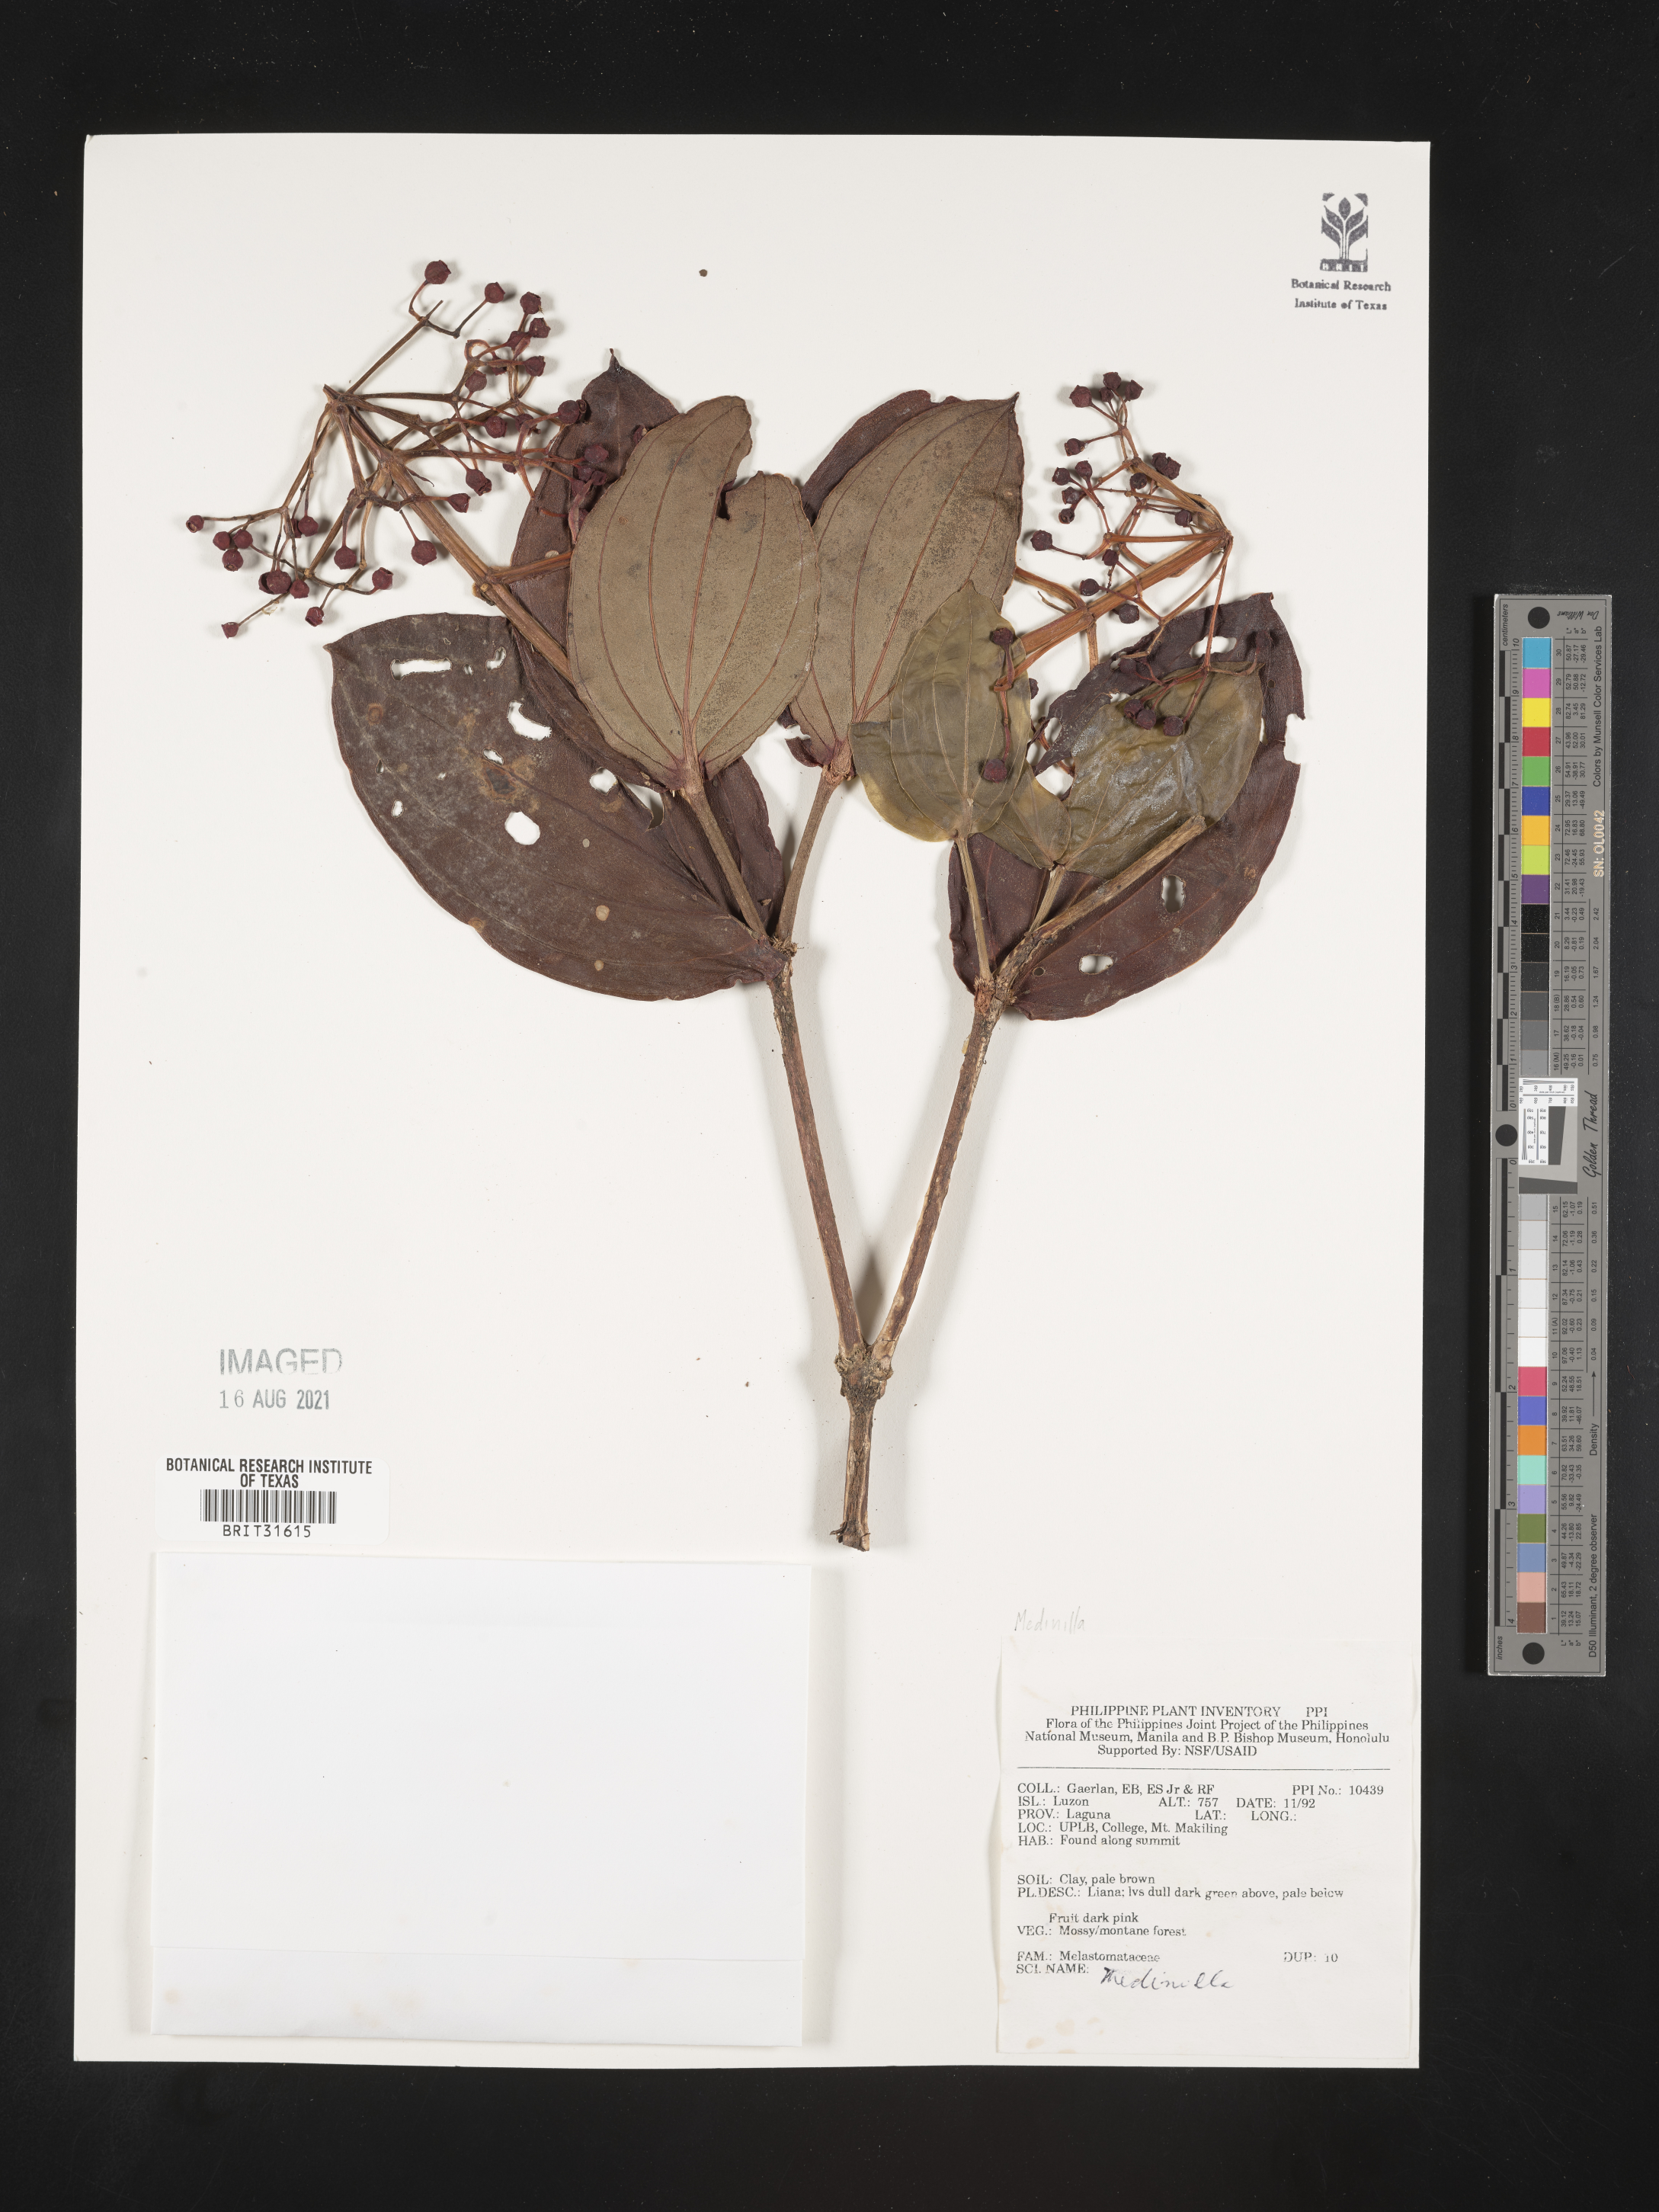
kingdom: Plantae
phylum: Tracheophyta
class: Magnoliopsida
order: Myrtales
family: Melastomataceae
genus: Medinilla
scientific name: Medinilla
